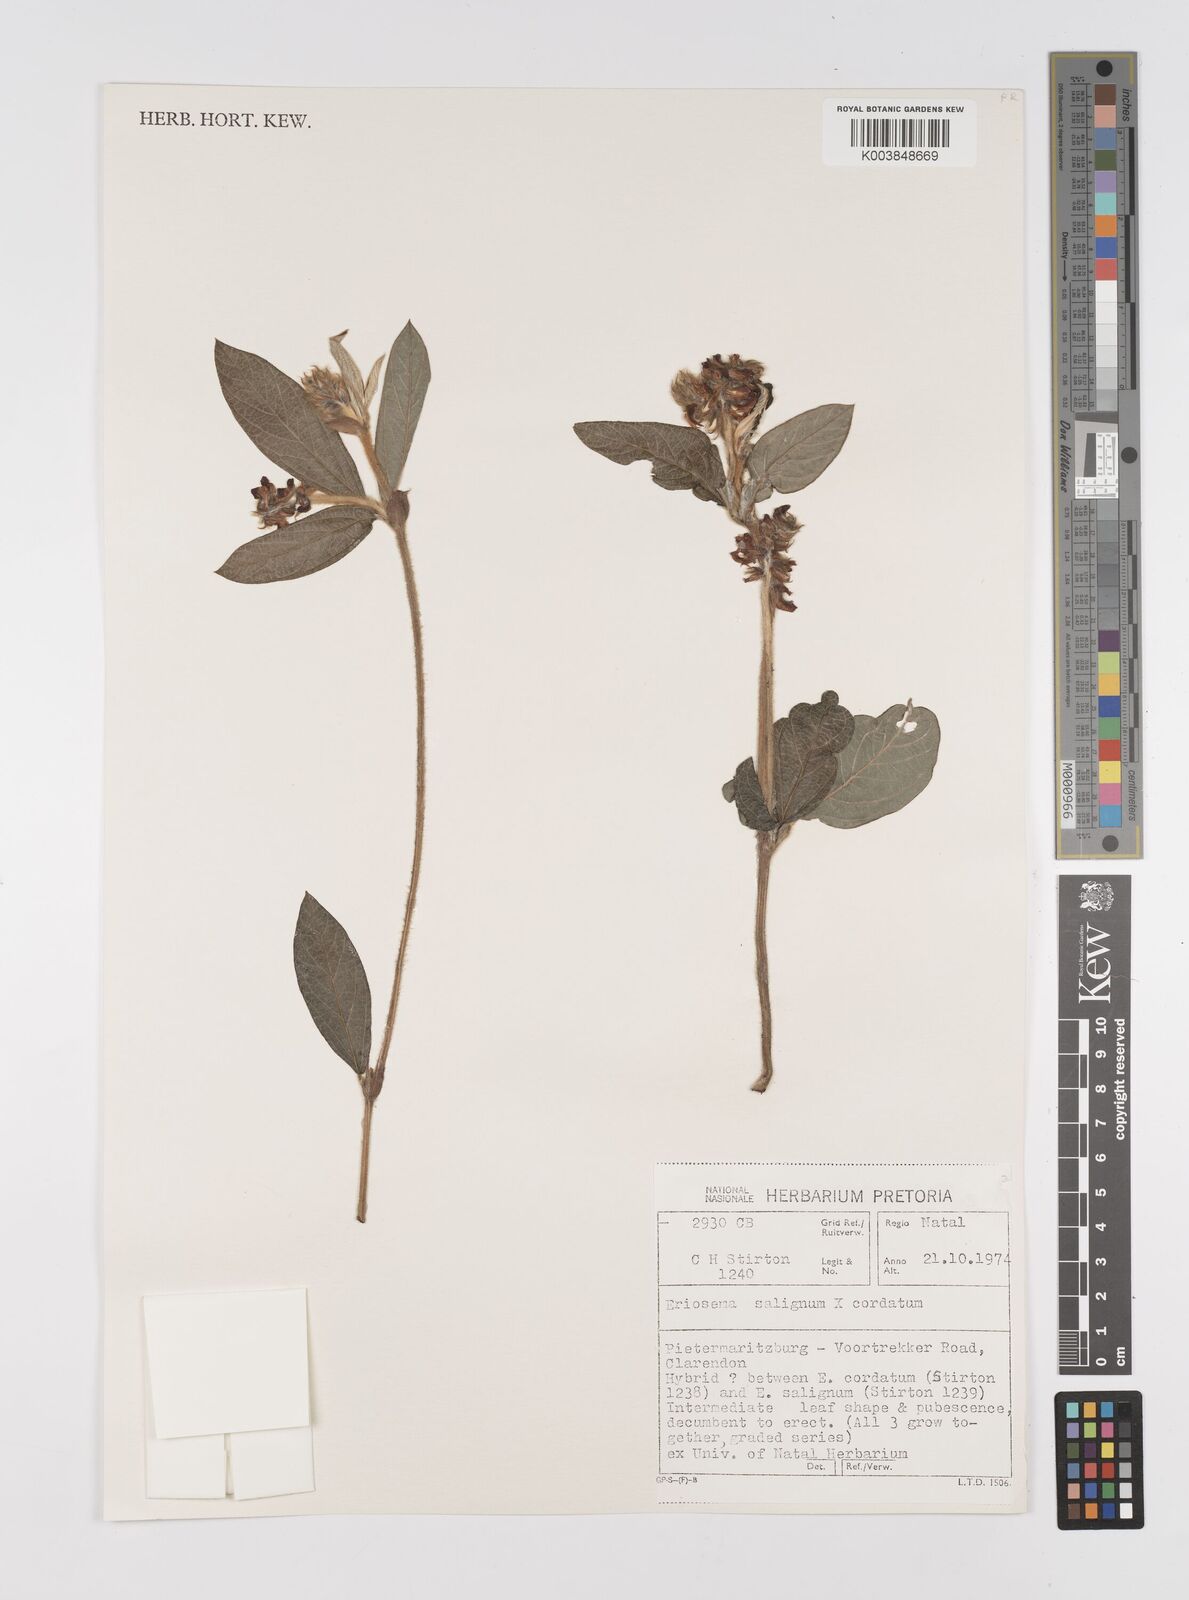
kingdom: Plantae
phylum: Tracheophyta
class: Magnoliopsida
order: Fabales
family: Fabaceae
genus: Eriosema
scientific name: Eriosema cordatum
